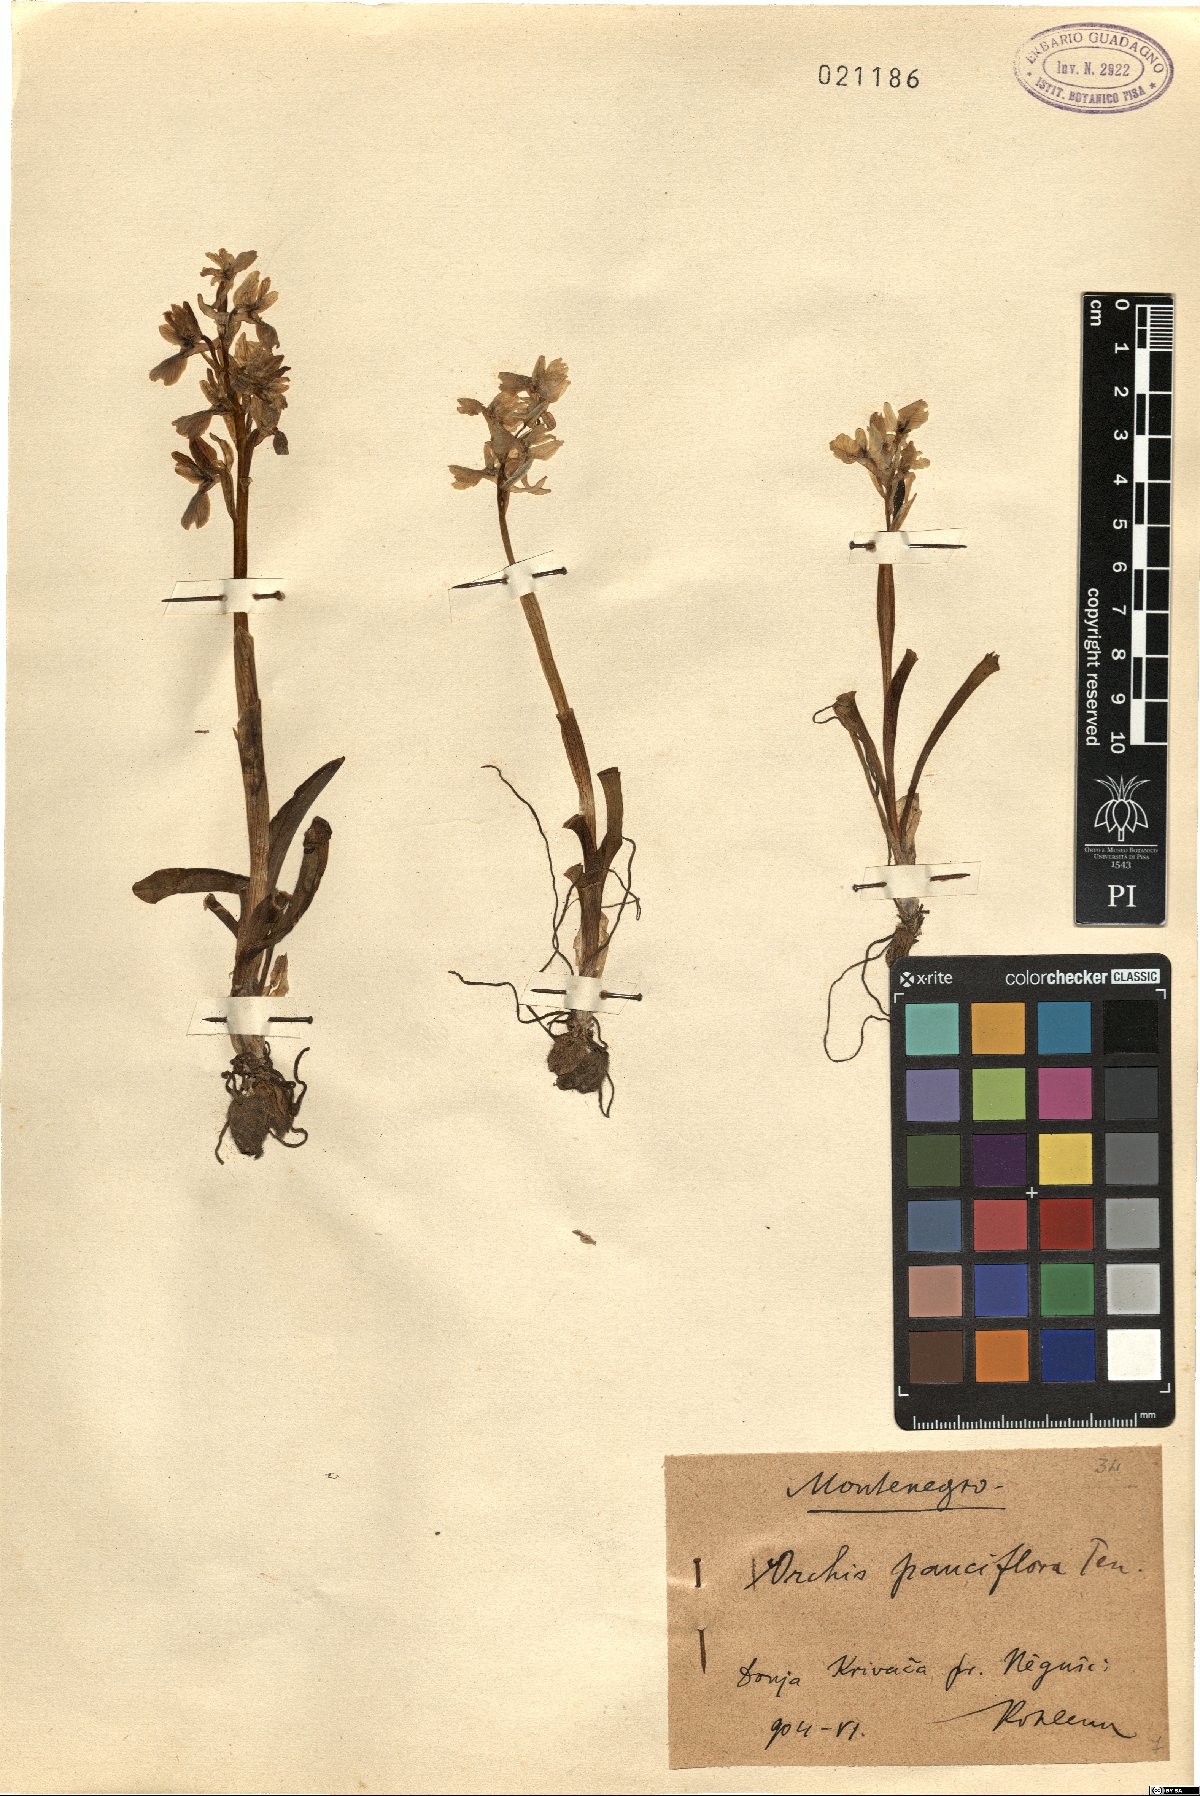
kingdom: Plantae
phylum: Tracheophyta
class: Liliopsida
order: Asparagales
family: Orchidaceae
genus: Orchis
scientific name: Orchis pauciflora
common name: Few-flowered orchid
